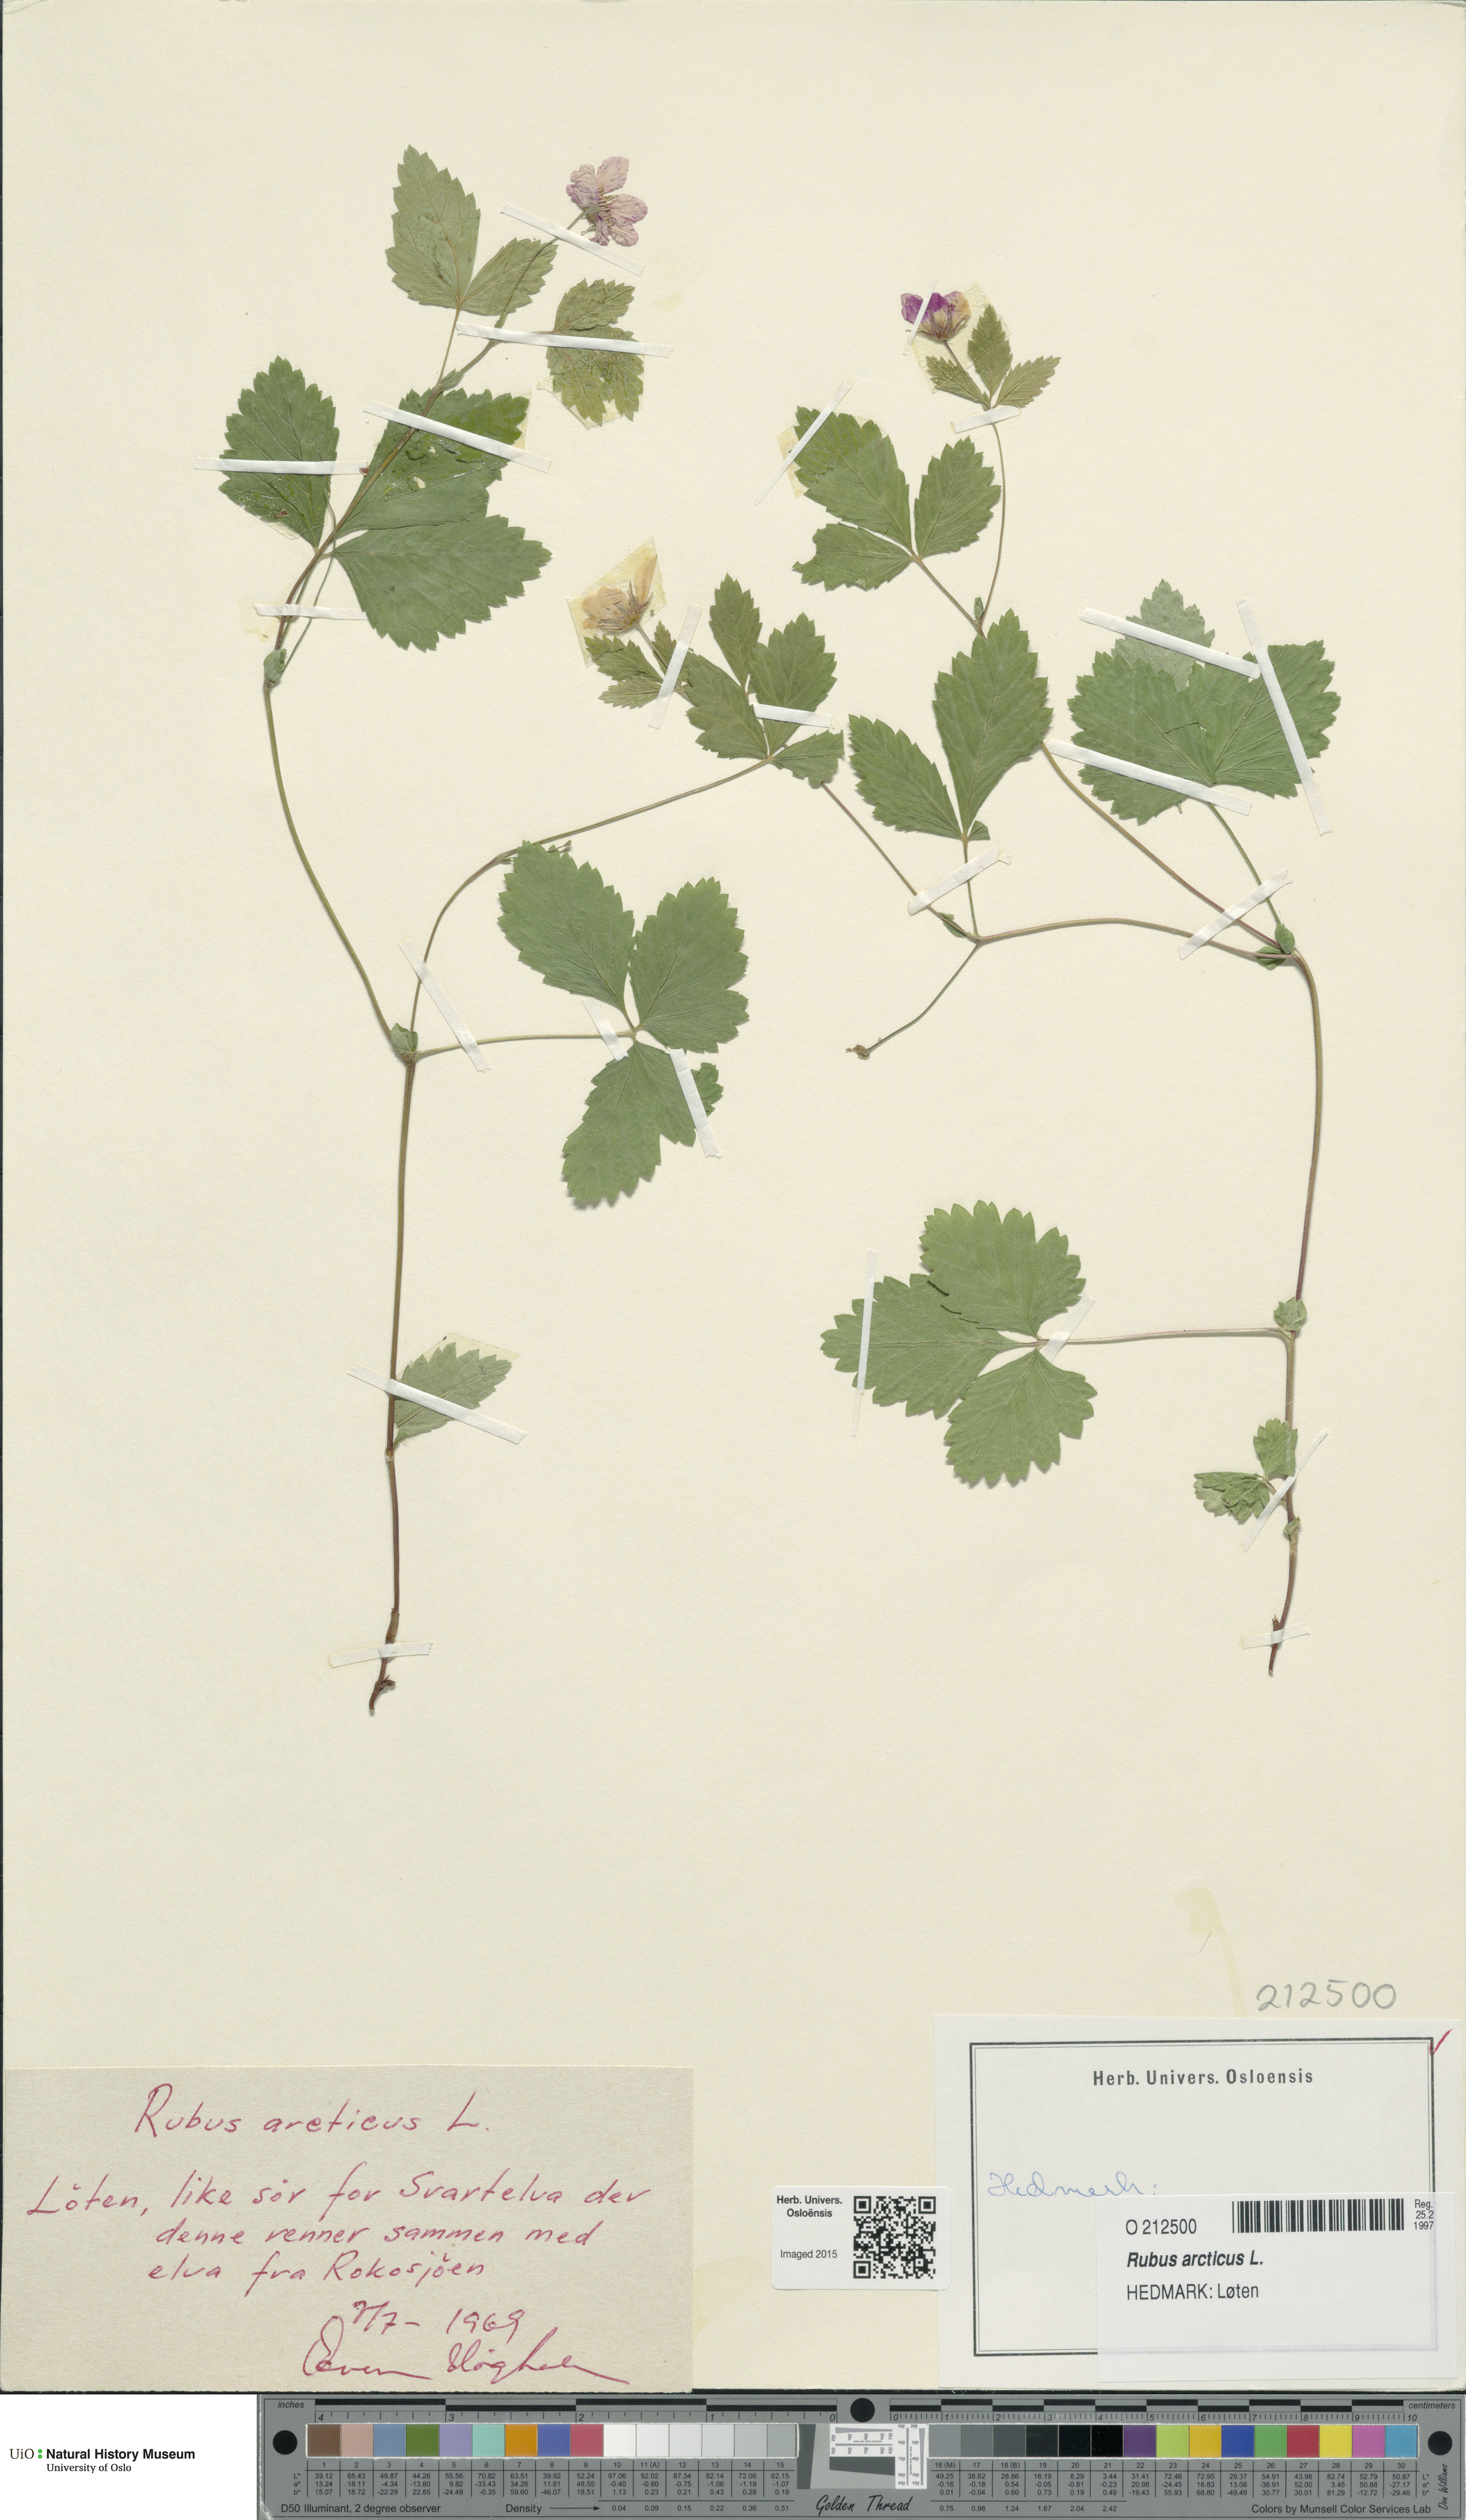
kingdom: Plantae
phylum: Tracheophyta
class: Magnoliopsida
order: Rosales
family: Rosaceae
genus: Rubus
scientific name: Rubus arcticus
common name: Arctic bramble
